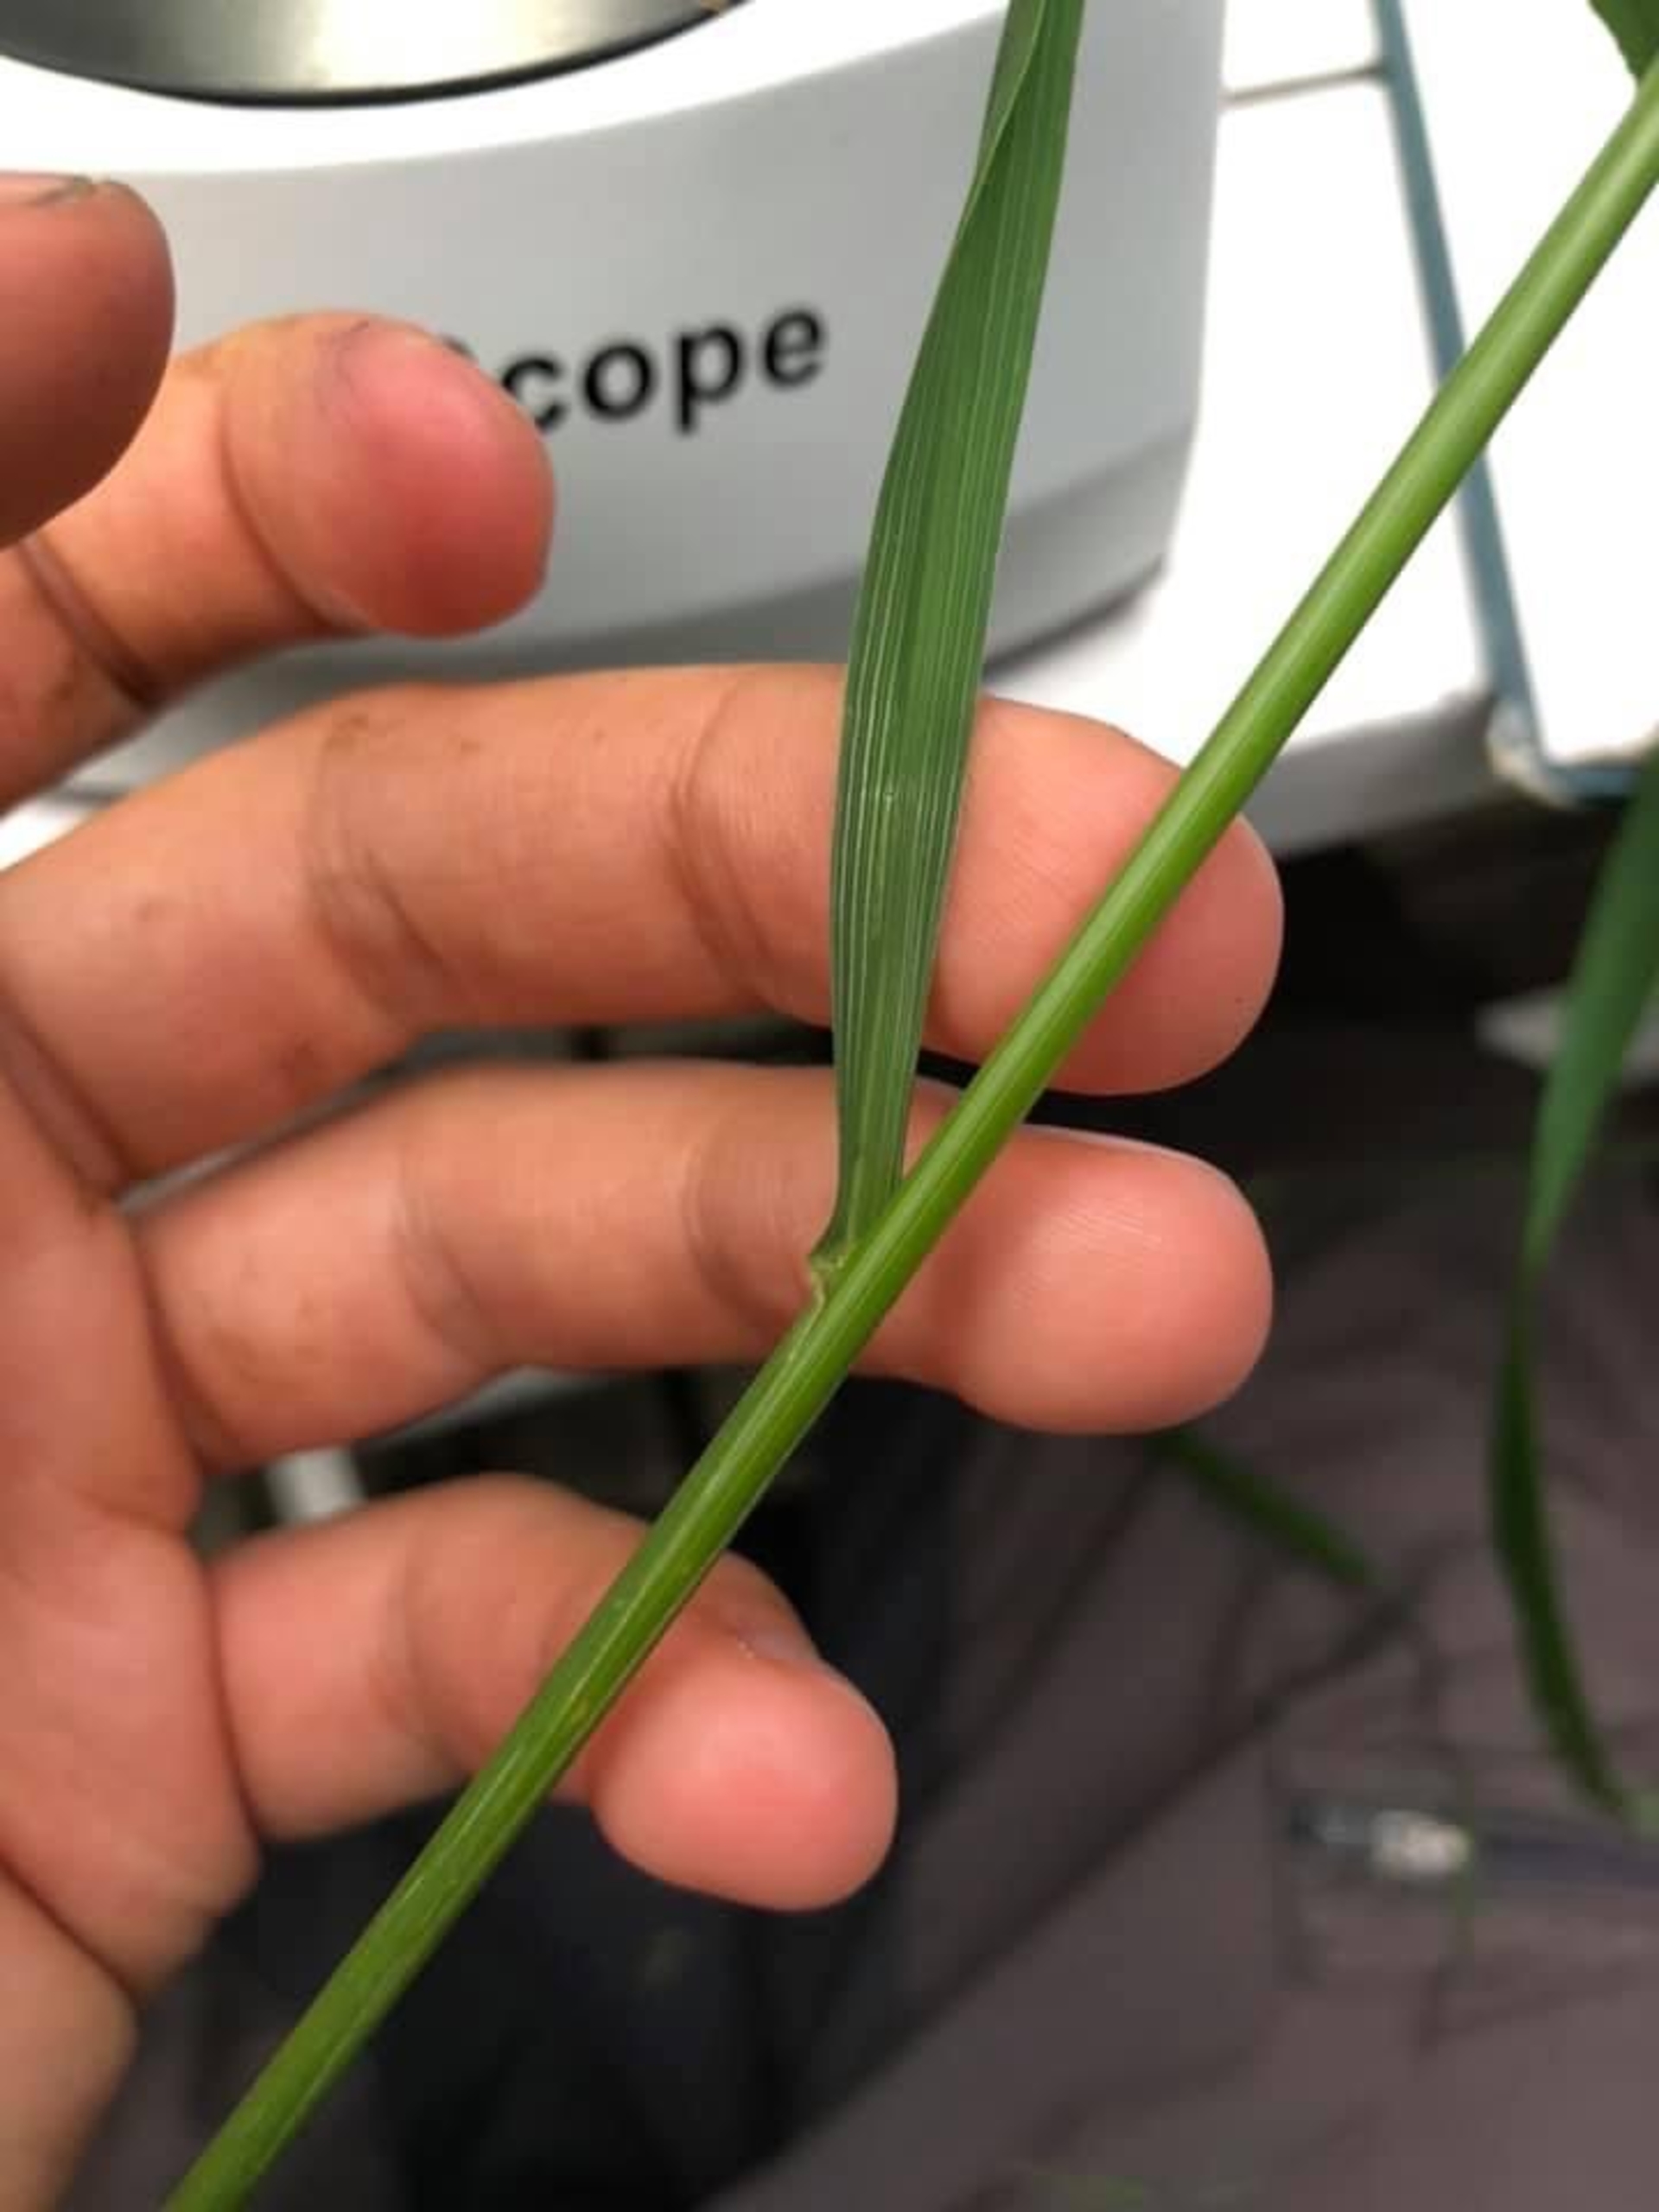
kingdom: Plantae
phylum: Tracheophyta
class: Liliopsida
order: Poales
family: Poaceae
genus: Calamagrostis
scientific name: Calamagrostis arundinacea
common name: Skov-rørhvene
